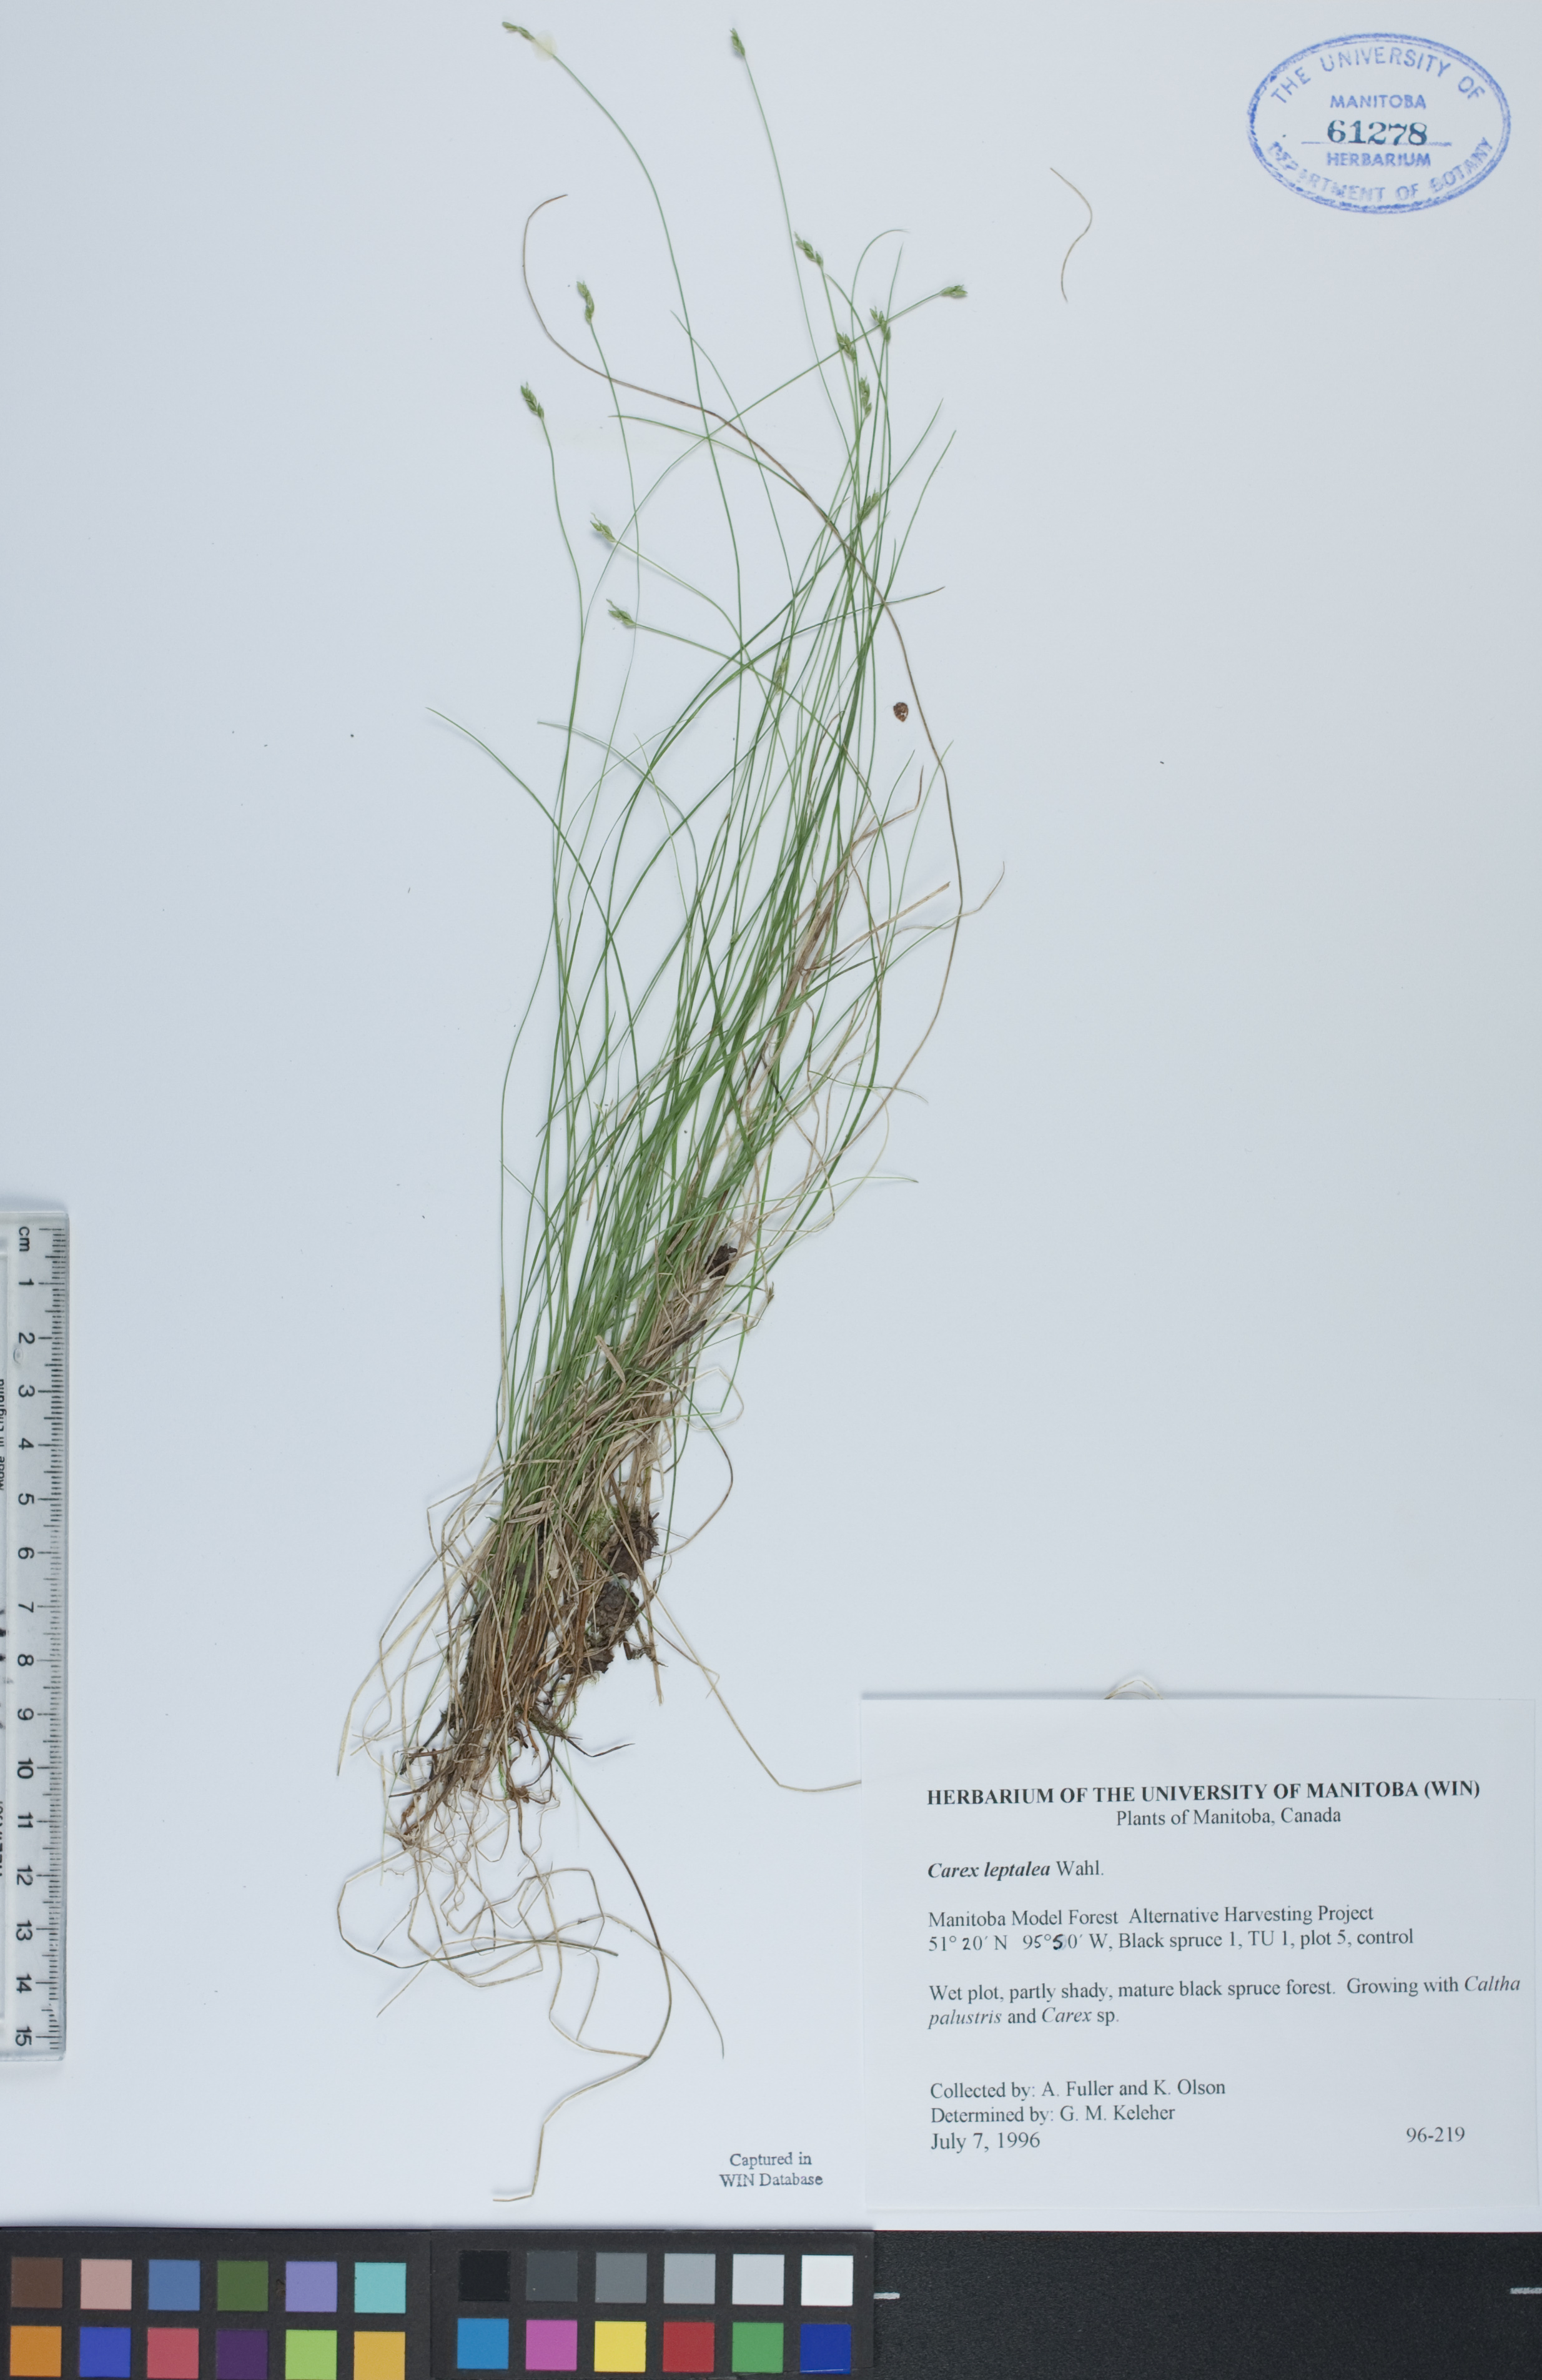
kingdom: Plantae
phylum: Tracheophyta
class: Liliopsida
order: Poales
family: Cyperaceae
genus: Carex
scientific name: Carex leptalea
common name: Bristly-stalked sedge
